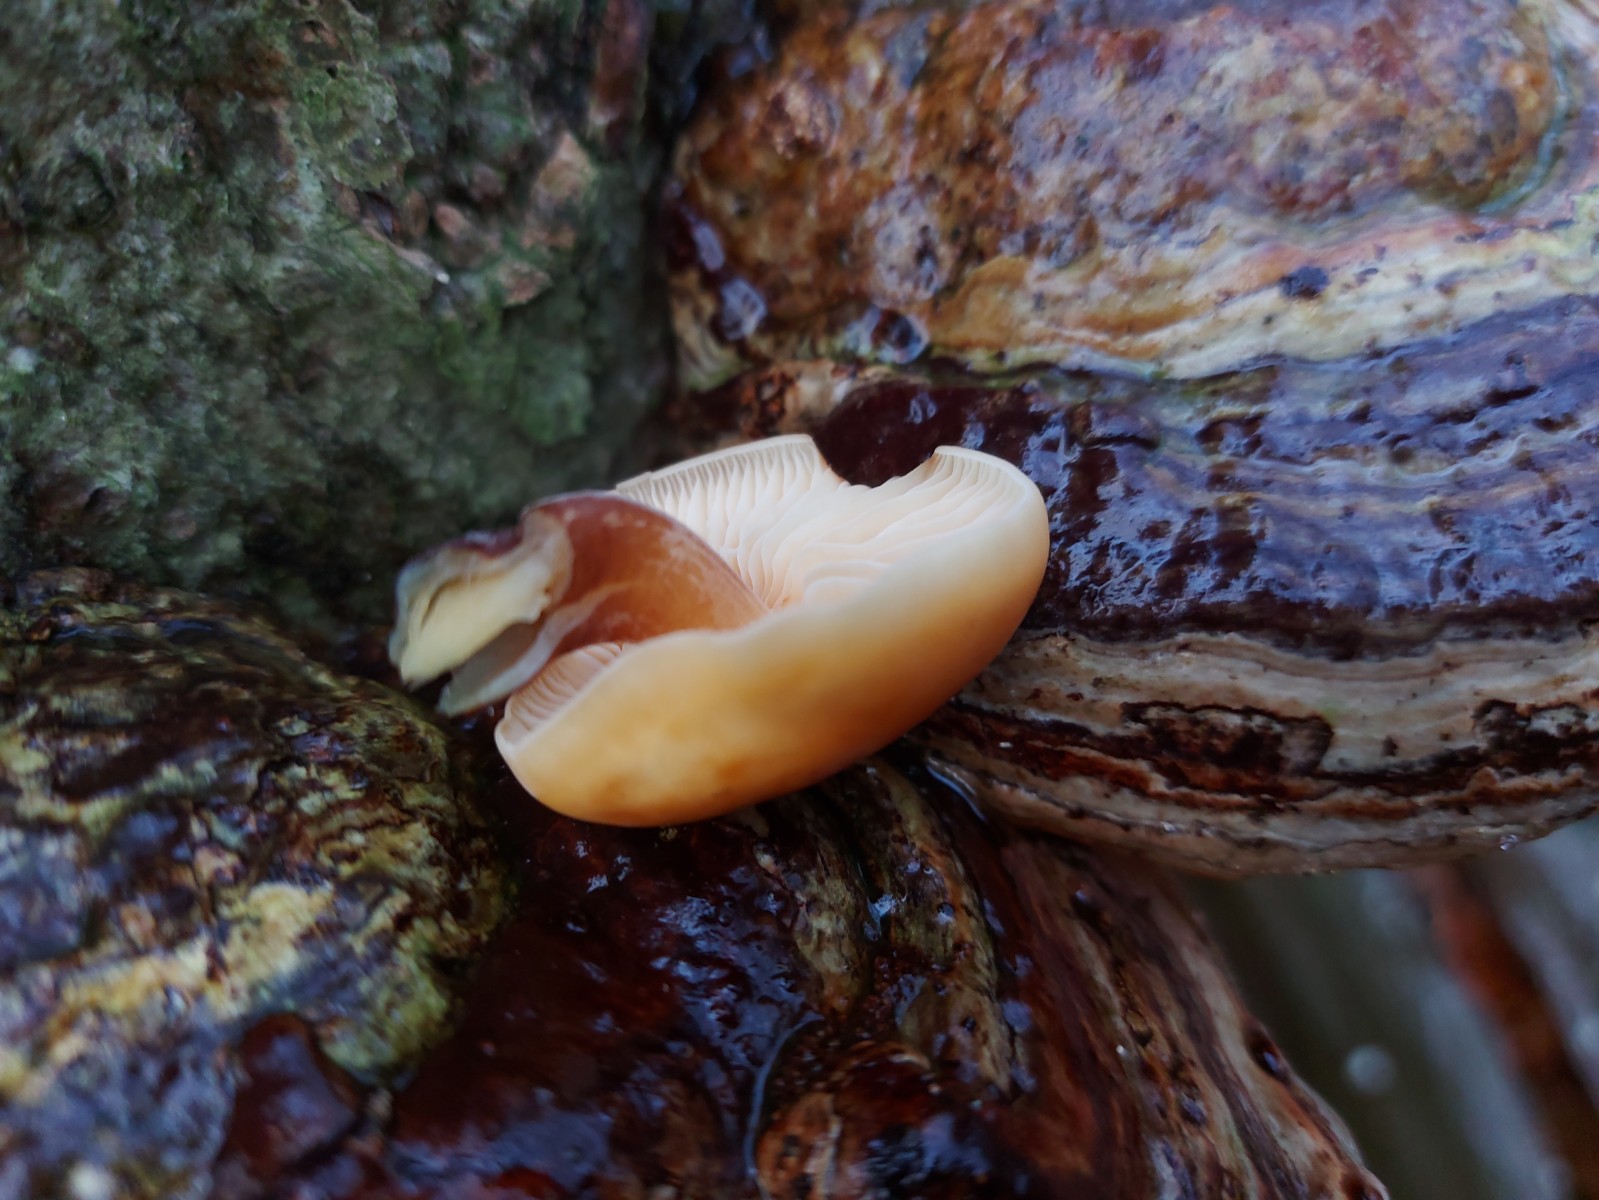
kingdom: Fungi
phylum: Basidiomycota
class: Agaricomycetes
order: Agaricales
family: Physalacriaceae
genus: Flammulina
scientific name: Flammulina velutipes
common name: gul fløjlsfod
